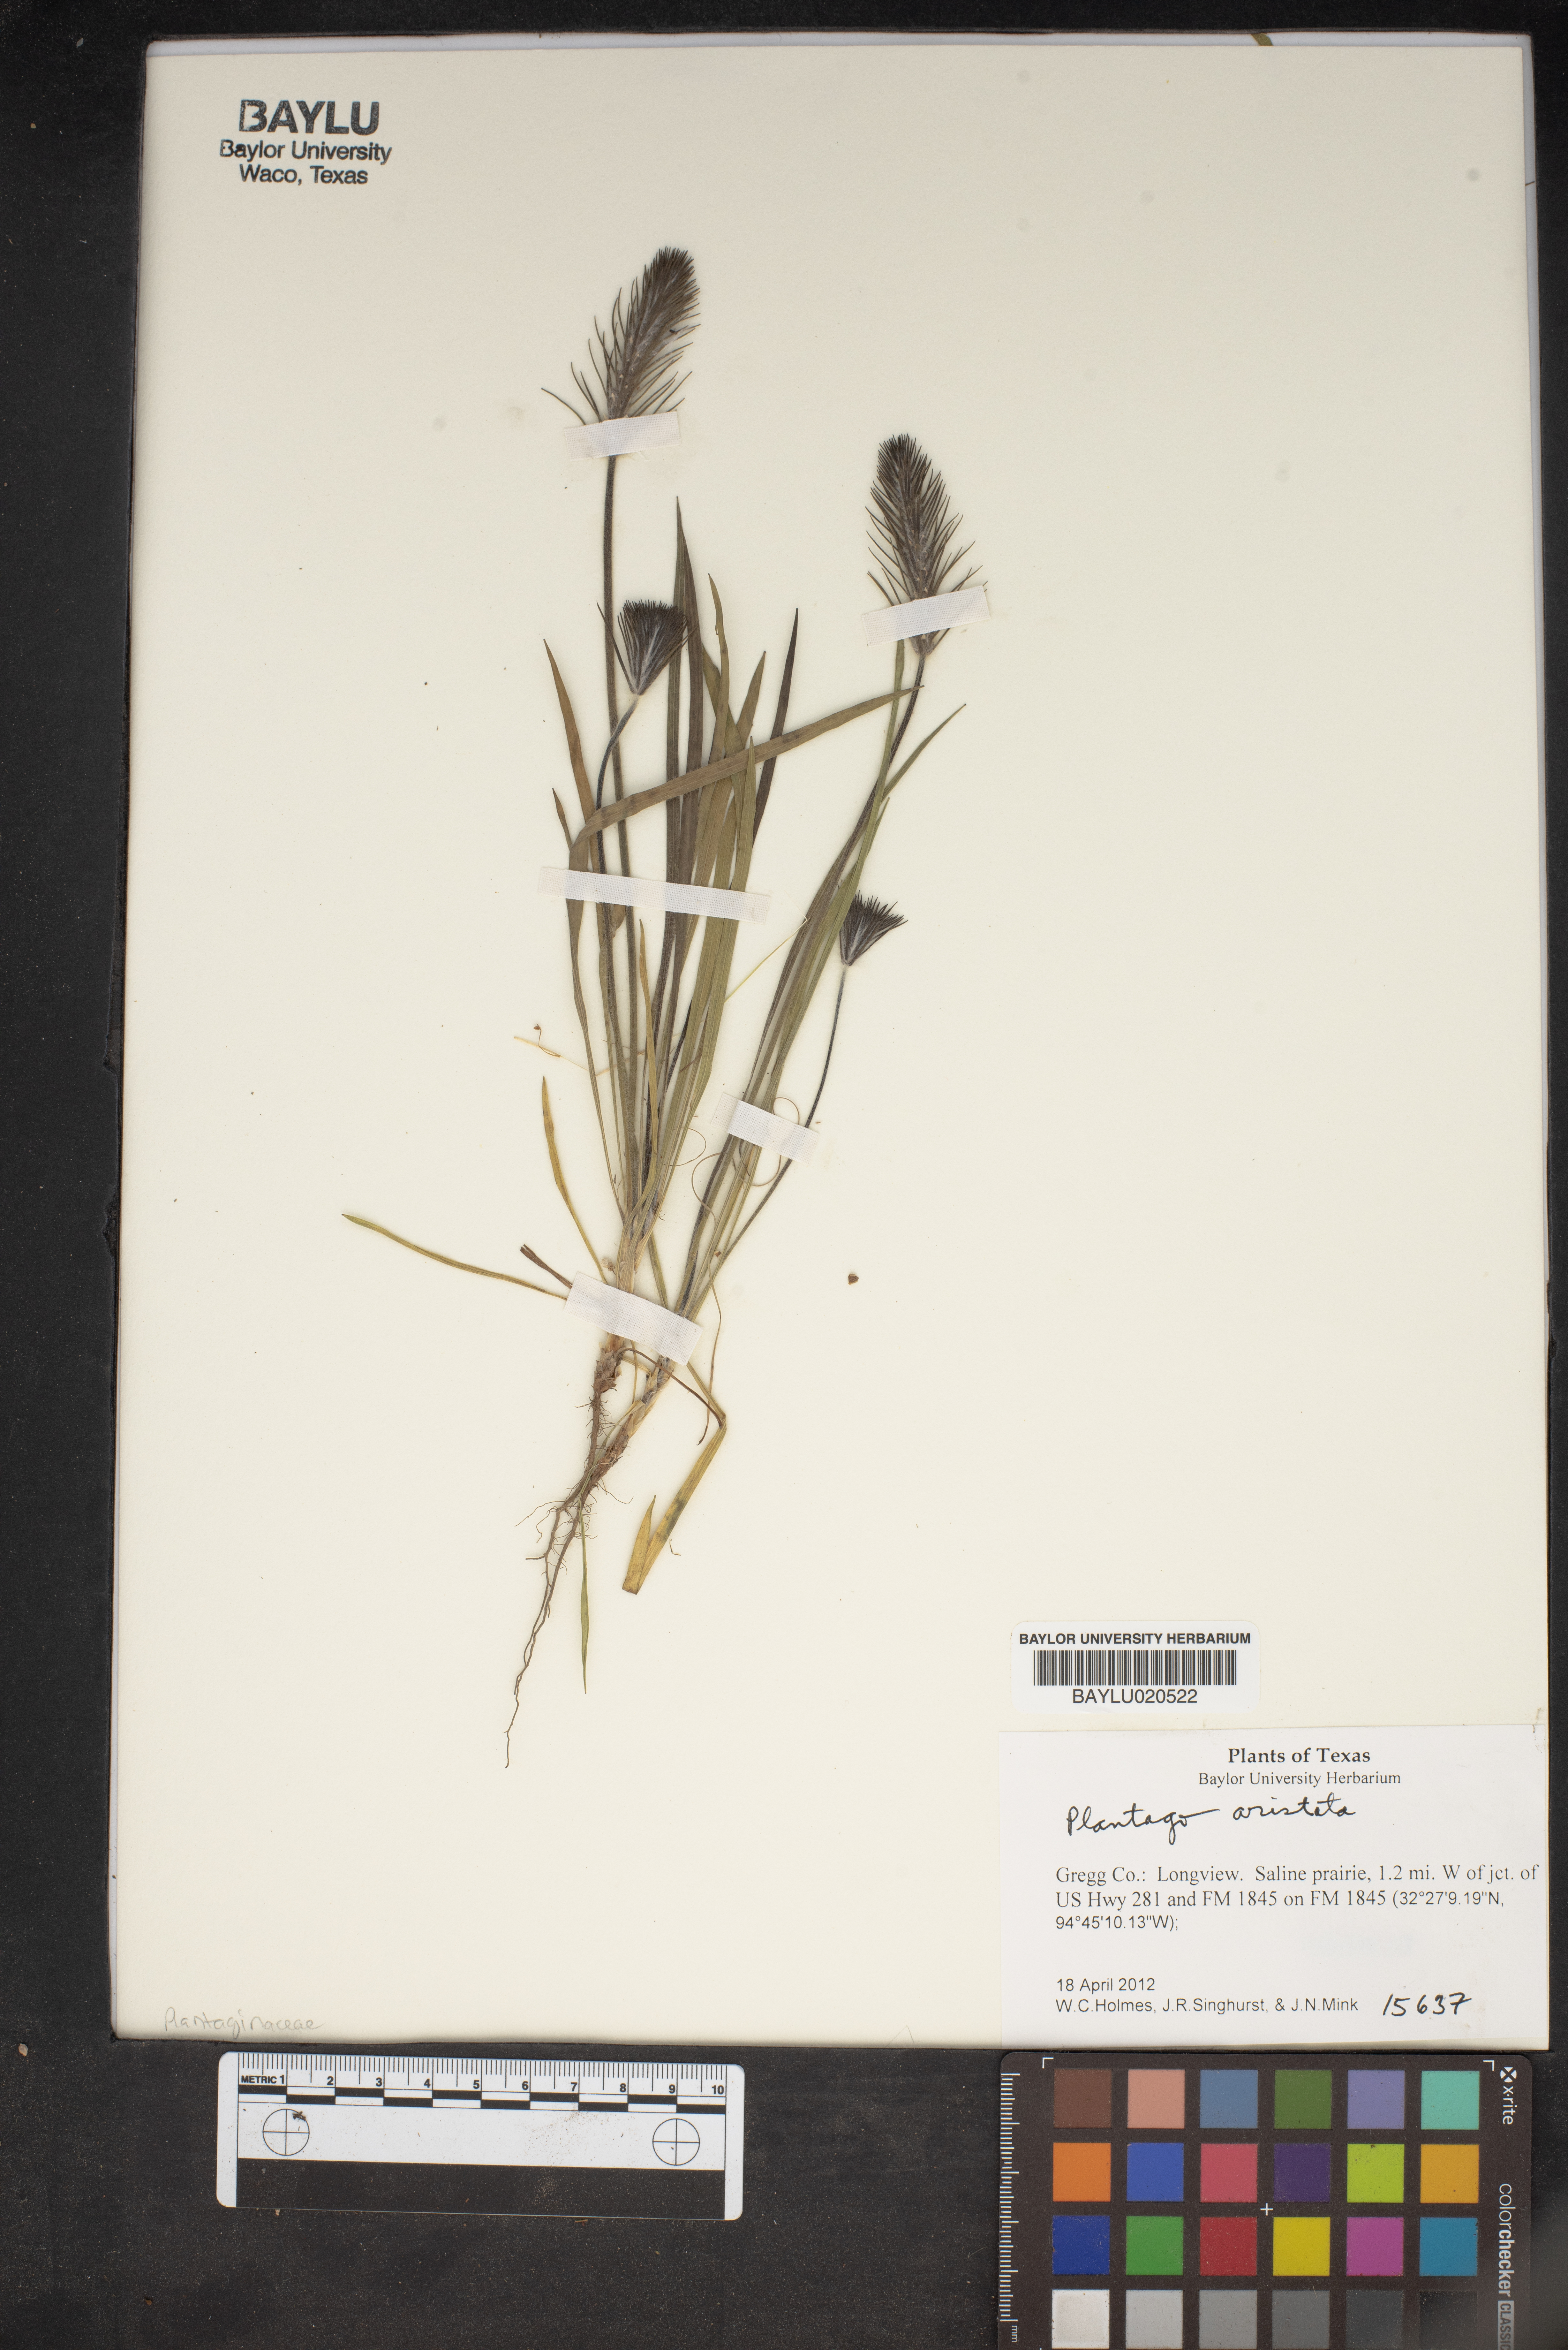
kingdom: Plantae
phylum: Tracheophyta
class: Magnoliopsida
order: Lamiales
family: Plantaginaceae
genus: Plantago
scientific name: Plantago aristata
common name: Bracted plantain
